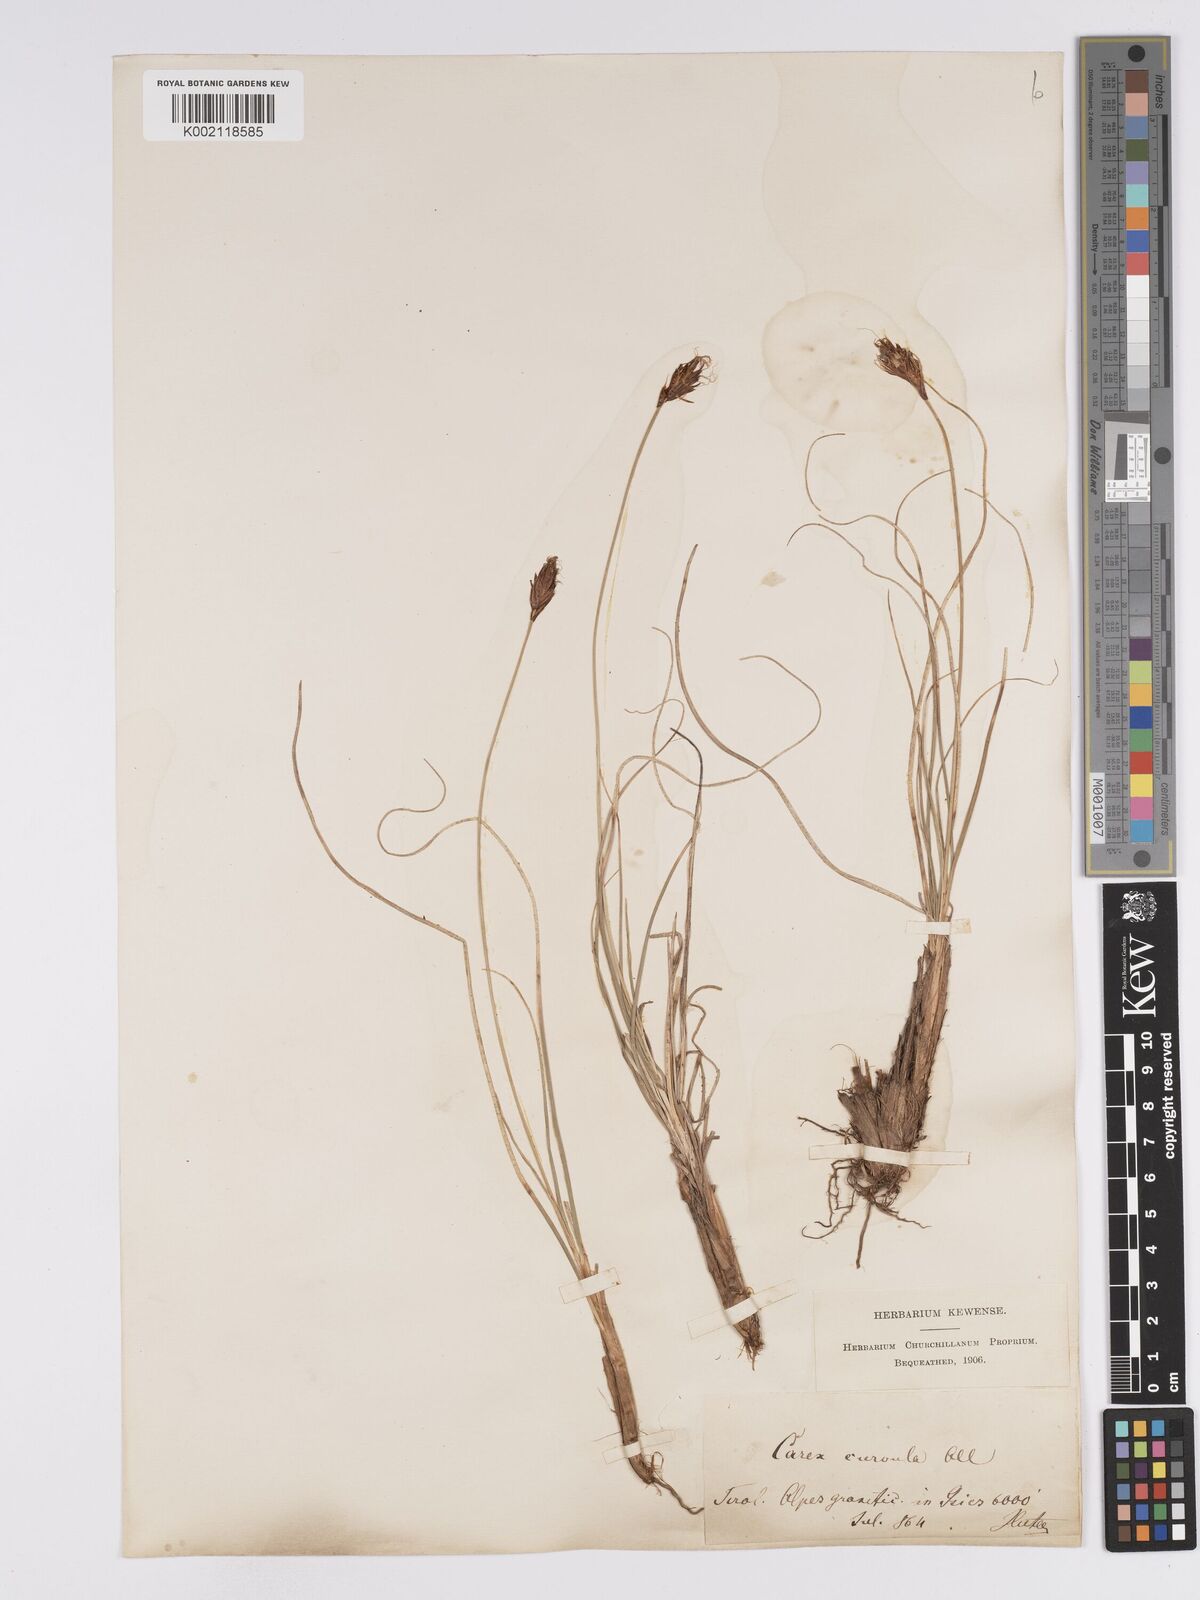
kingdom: Plantae
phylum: Tracheophyta
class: Liliopsida
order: Poales
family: Cyperaceae
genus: Carex
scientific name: Carex curvula
